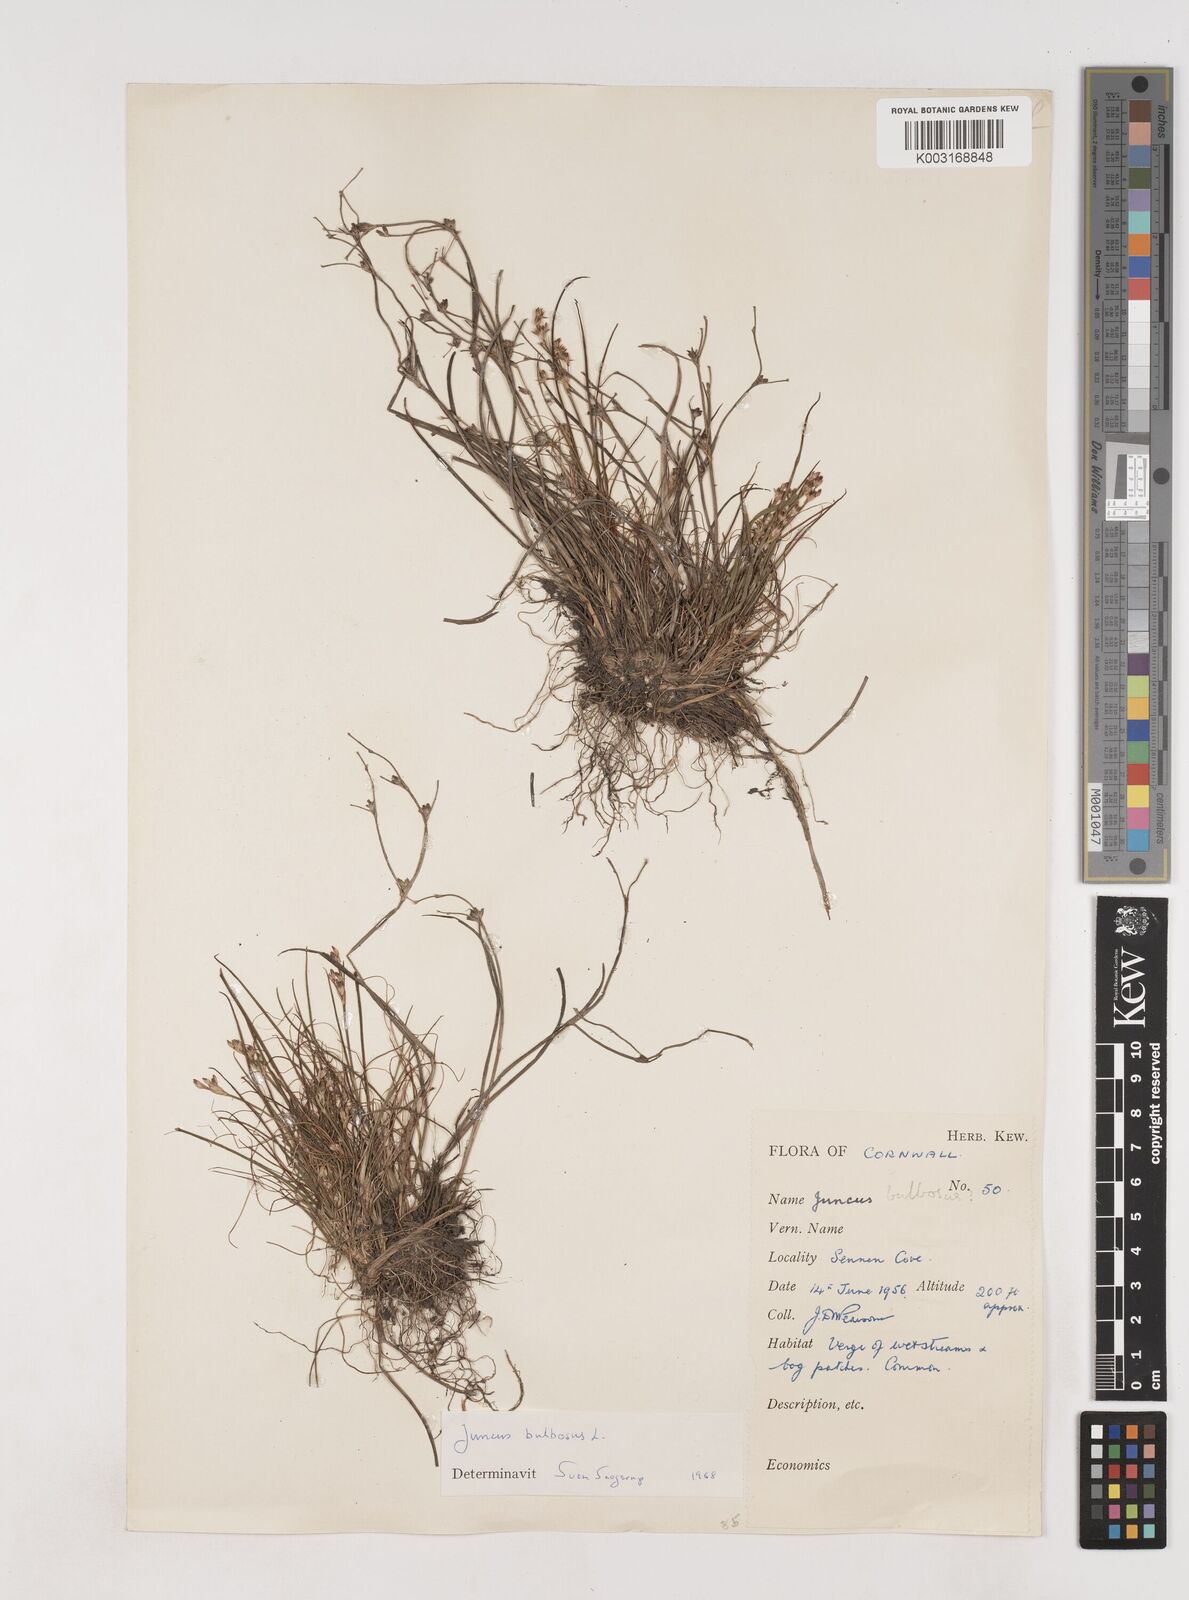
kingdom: Plantae
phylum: Tracheophyta
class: Liliopsida
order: Poales
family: Juncaceae
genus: Juncus
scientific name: Juncus bulbosus
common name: Bulbous rush
